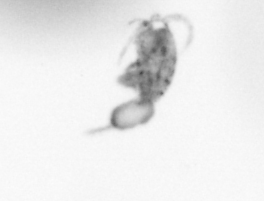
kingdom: Animalia
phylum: Arthropoda
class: Copepoda
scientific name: Copepoda
